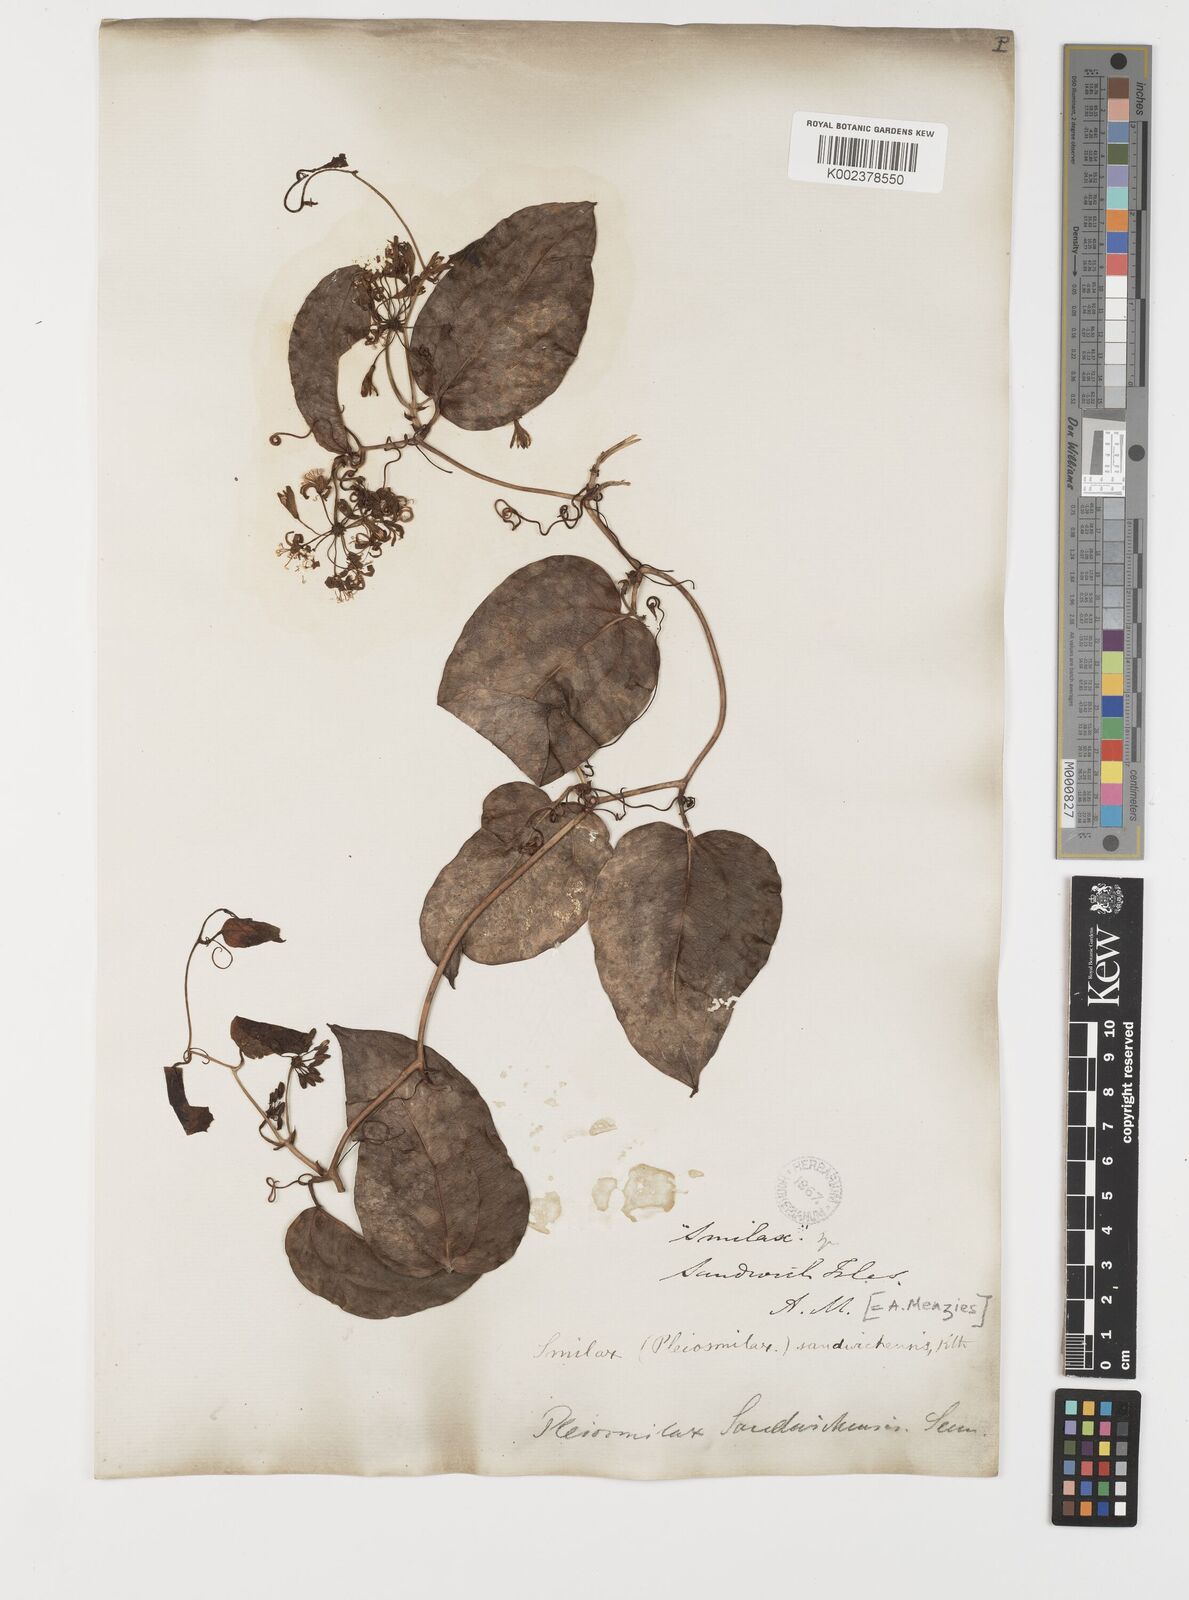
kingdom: Plantae
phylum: Tracheophyta
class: Liliopsida
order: Liliales
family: Smilacaceae
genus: Smilax
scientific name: Smilax melastomifolia
